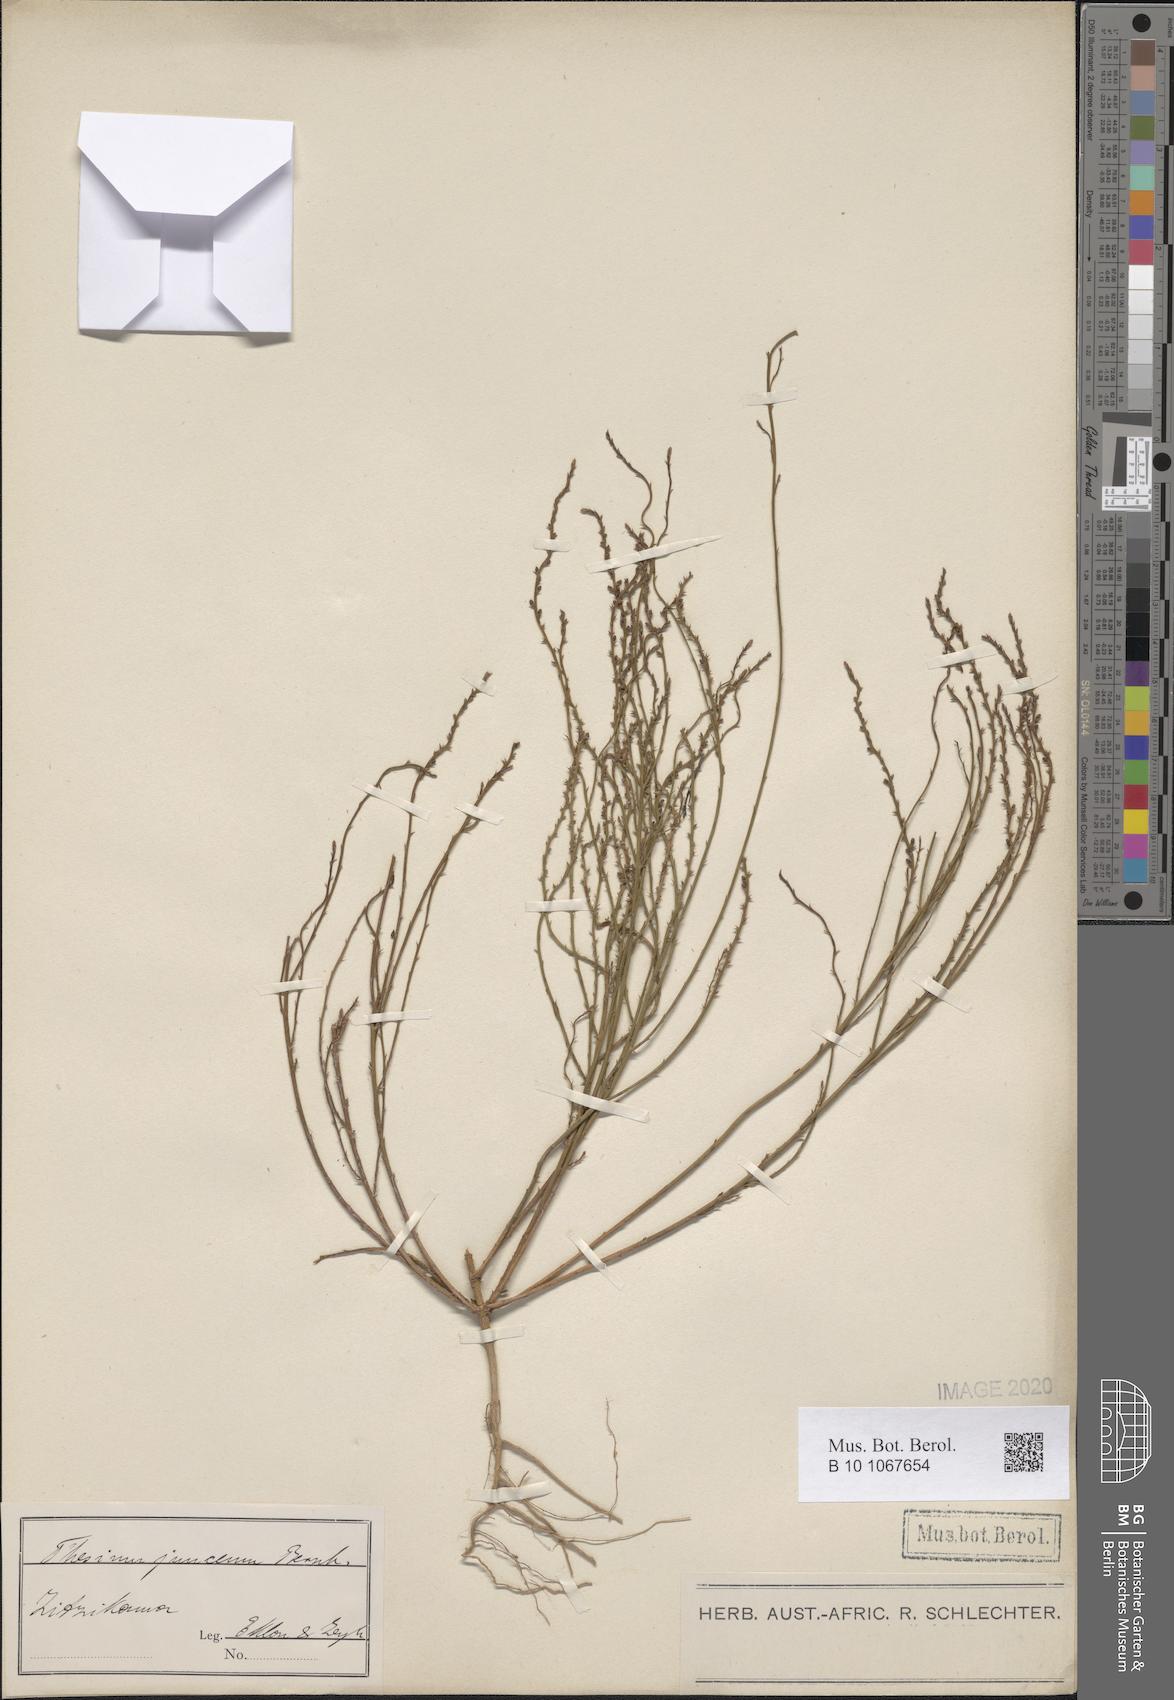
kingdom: Plantae
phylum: Tracheophyta
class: Magnoliopsida
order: Santalales
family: Thesiaceae
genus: Thesium
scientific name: Thesium junceum
